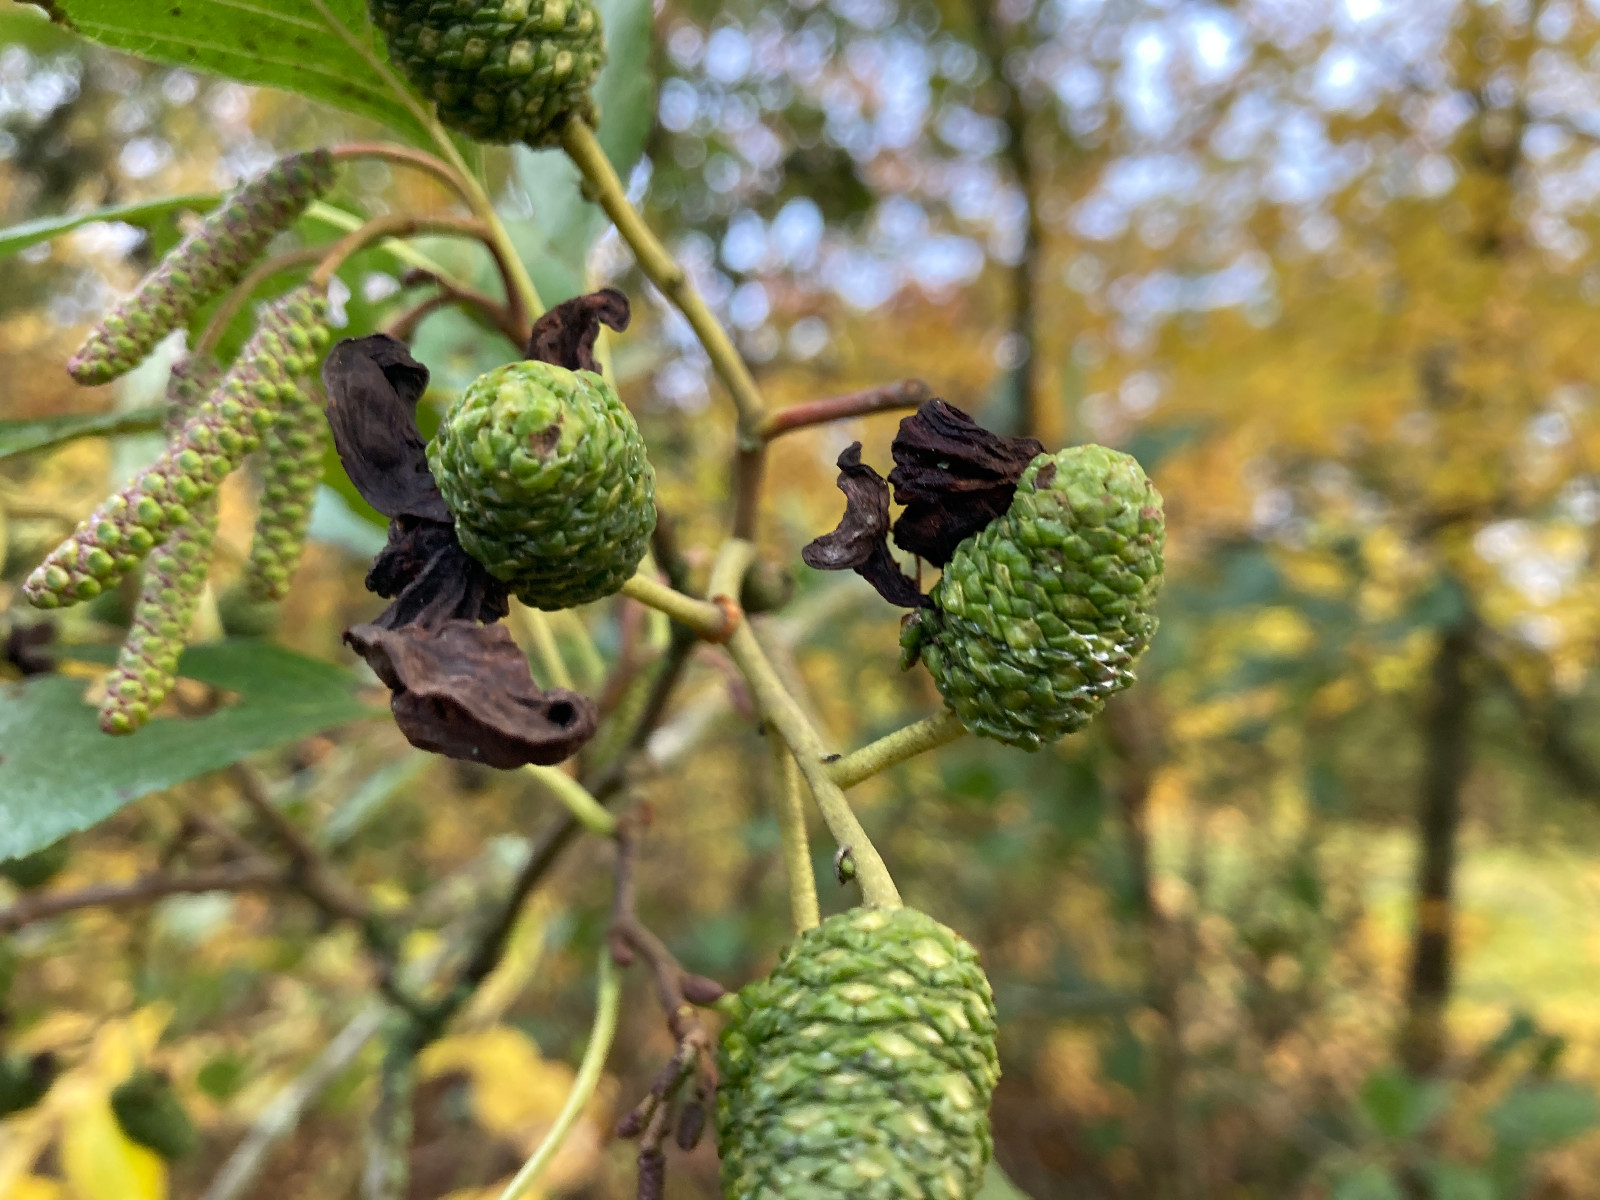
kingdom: Fungi
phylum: Ascomycota
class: Taphrinomycetes
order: Taphrinales
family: Taphrinaceae
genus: Taphrina
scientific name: Taphrina alni
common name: Alder tongue
